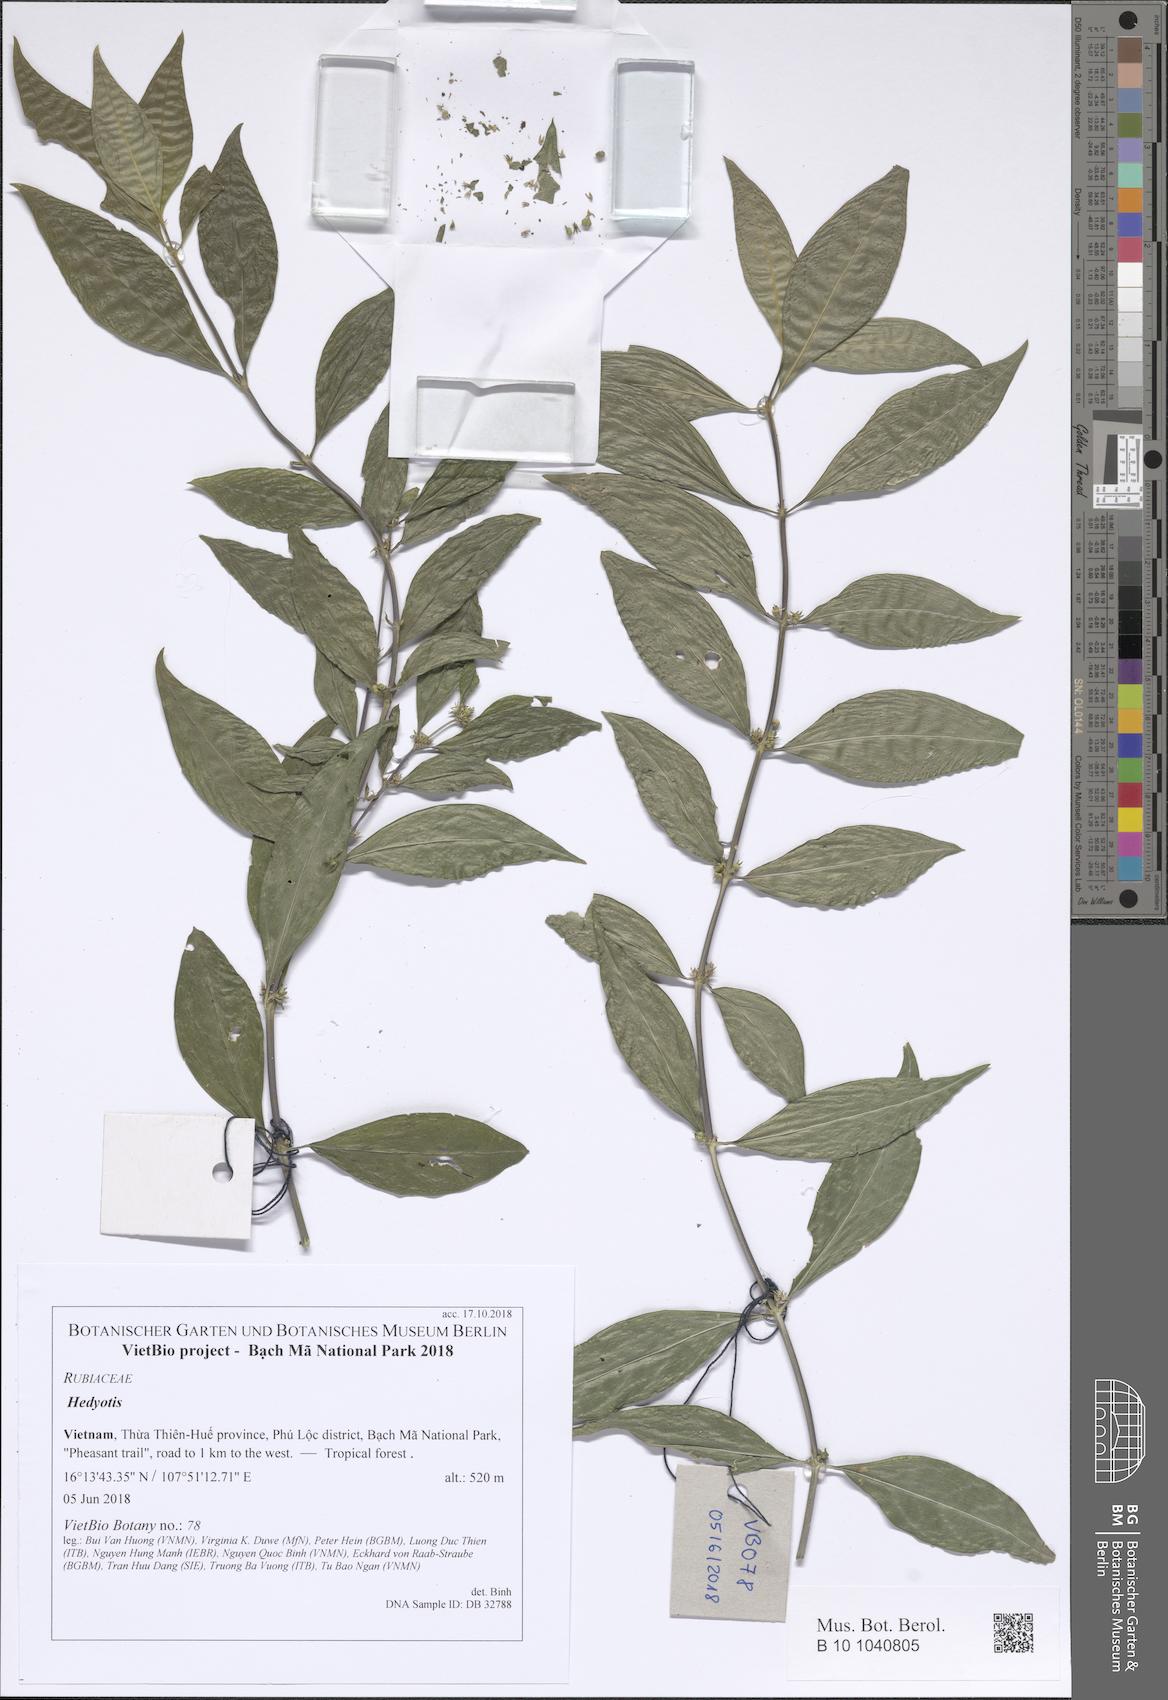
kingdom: Plantae
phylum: Tracheophyta
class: Magnoliopsida
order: Gentianales
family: Rubiaceae
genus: Hedyotis
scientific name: Hedyotis
